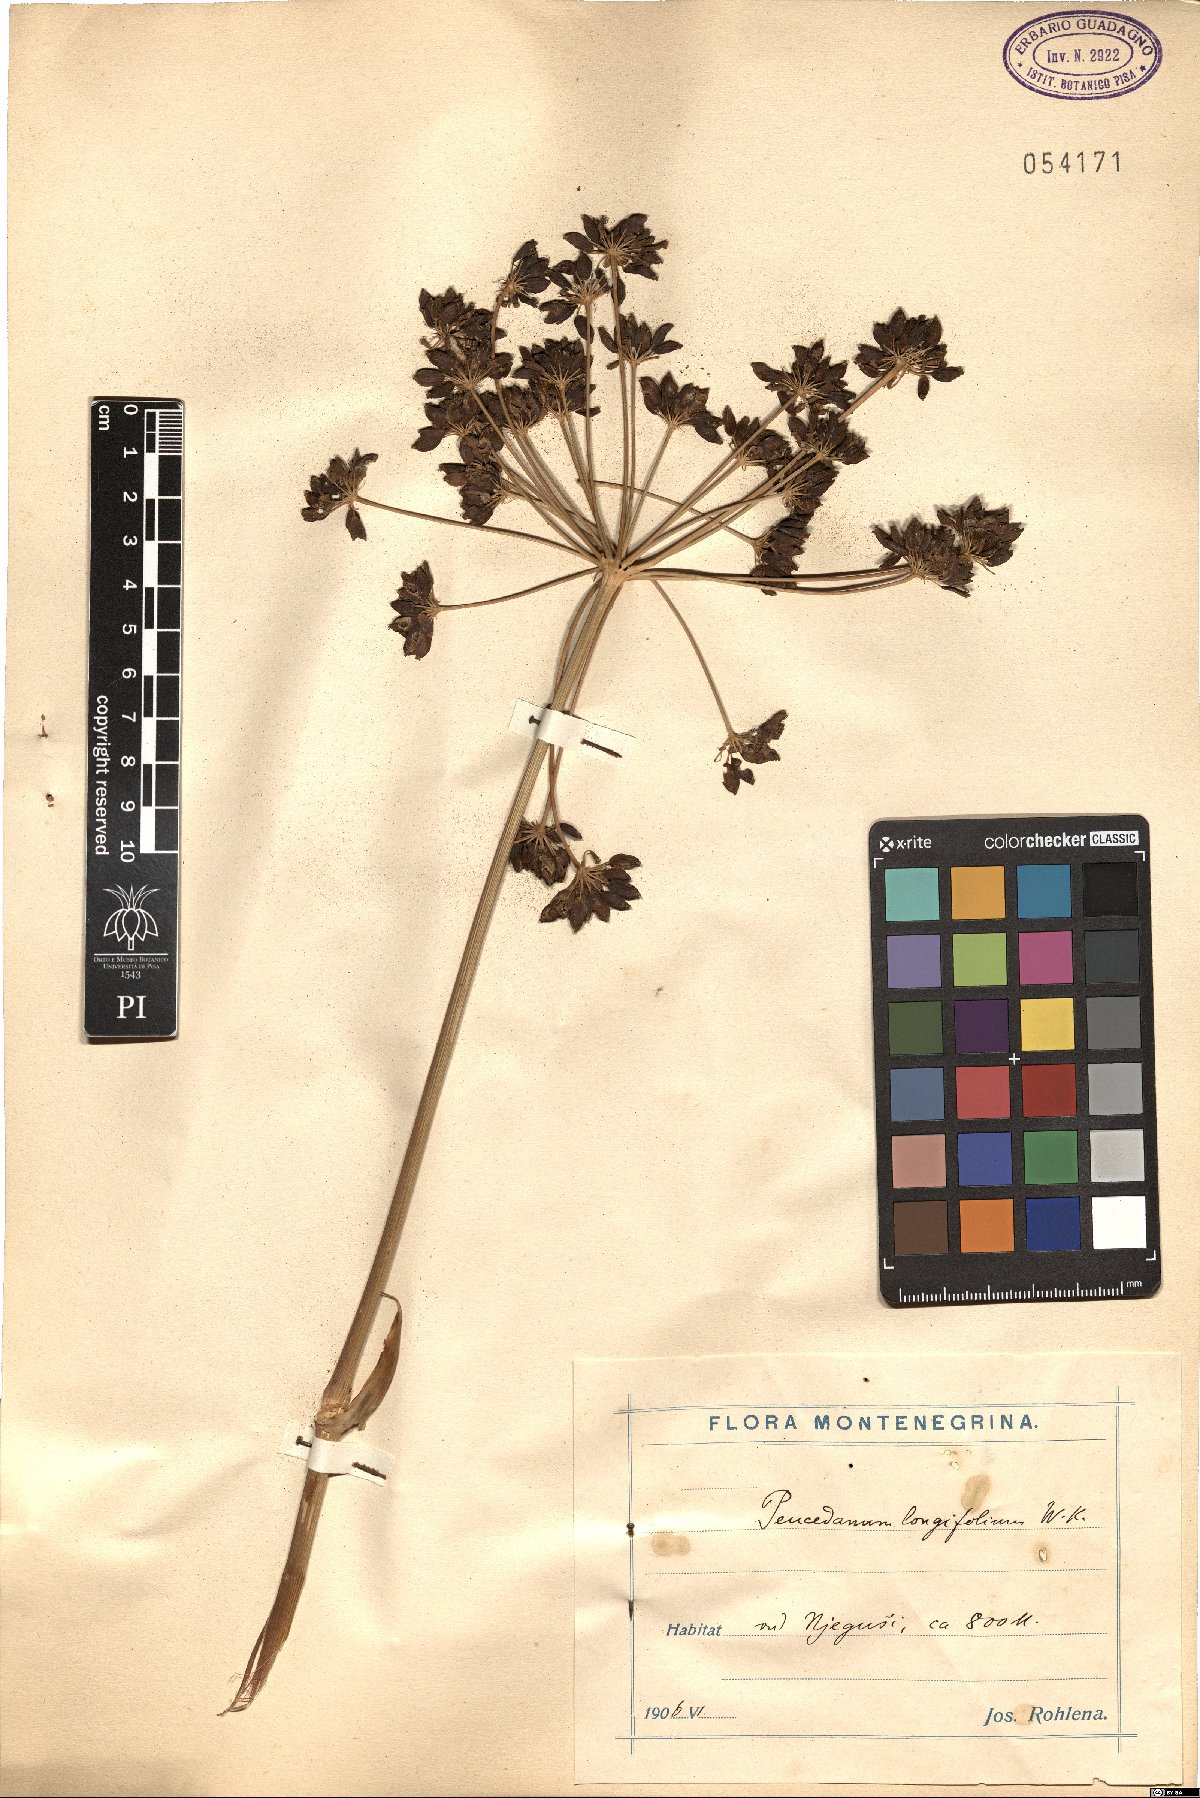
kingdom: Plantae
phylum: Tracheophyta
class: Magnoliopsida
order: Apiales
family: Apiaceae
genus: Peucedanum
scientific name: Peucedanum longifolium
